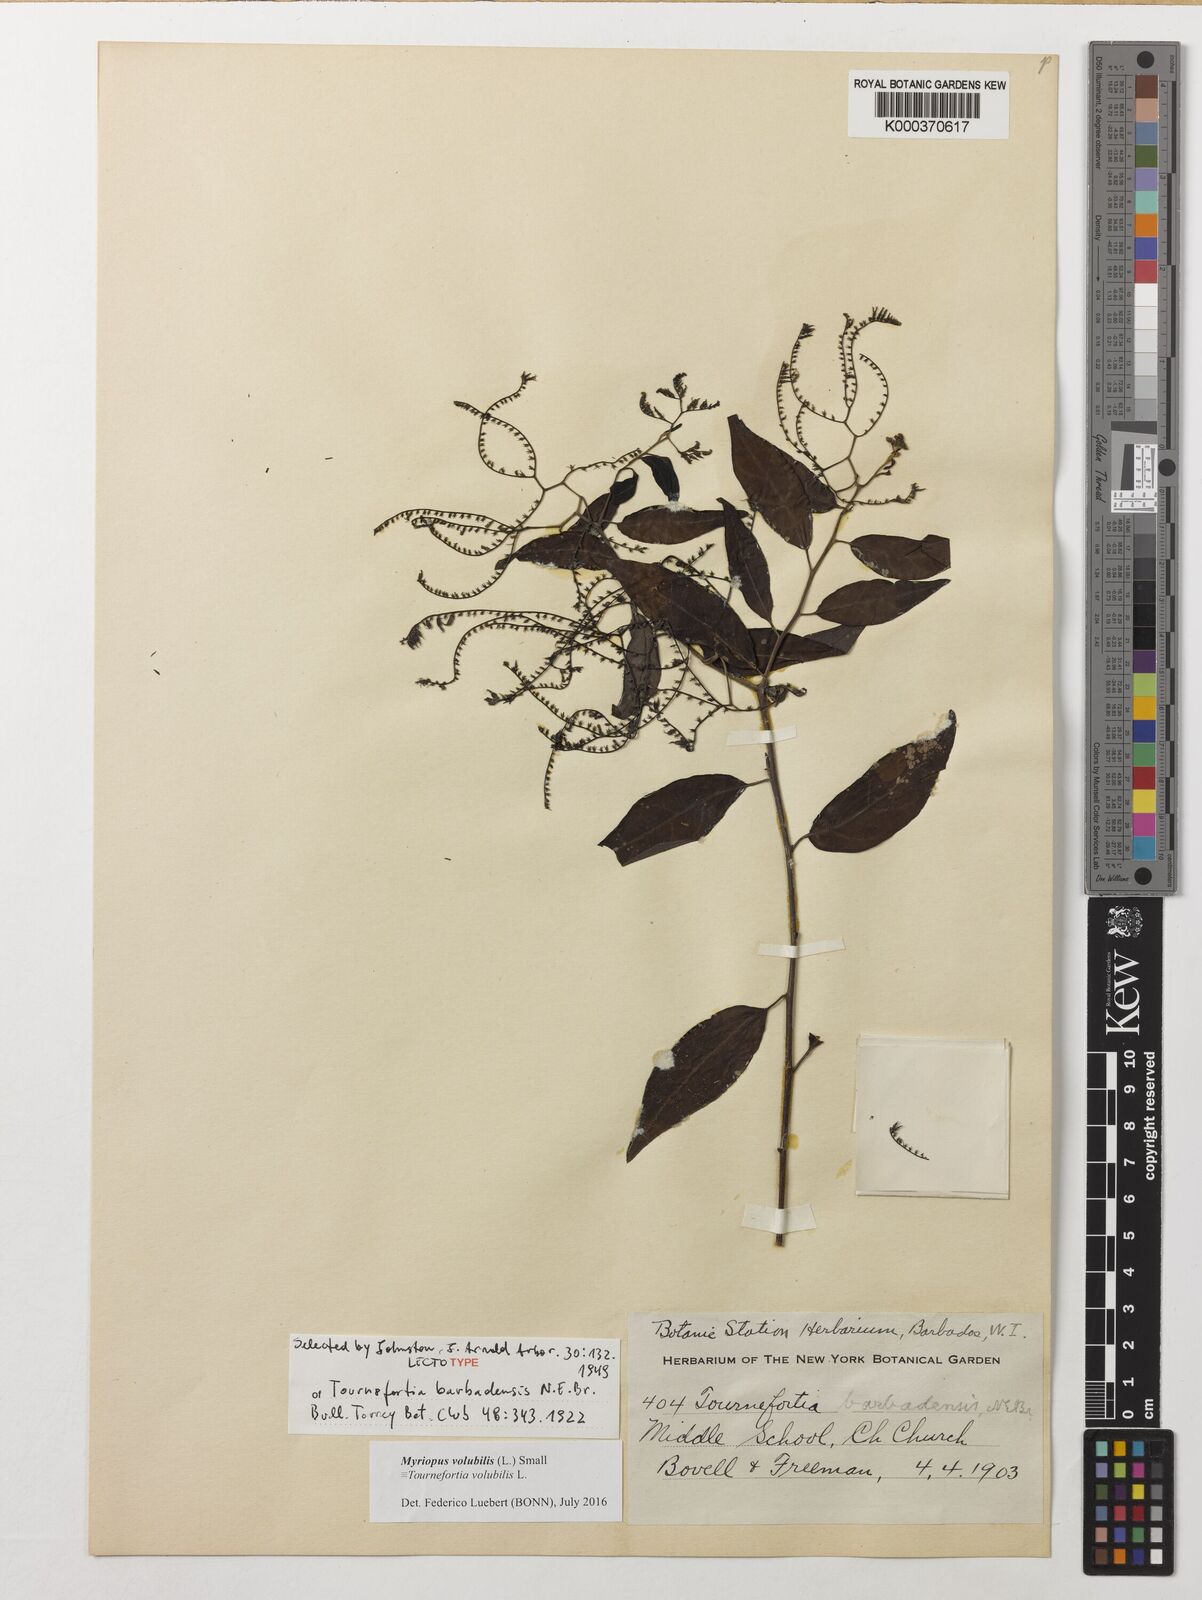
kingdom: Plantae
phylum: Tracheophyta
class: Magnoliopsida
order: Boraginales
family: Heliotropiaceae
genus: Myriopus
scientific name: Myriopus volubilis
